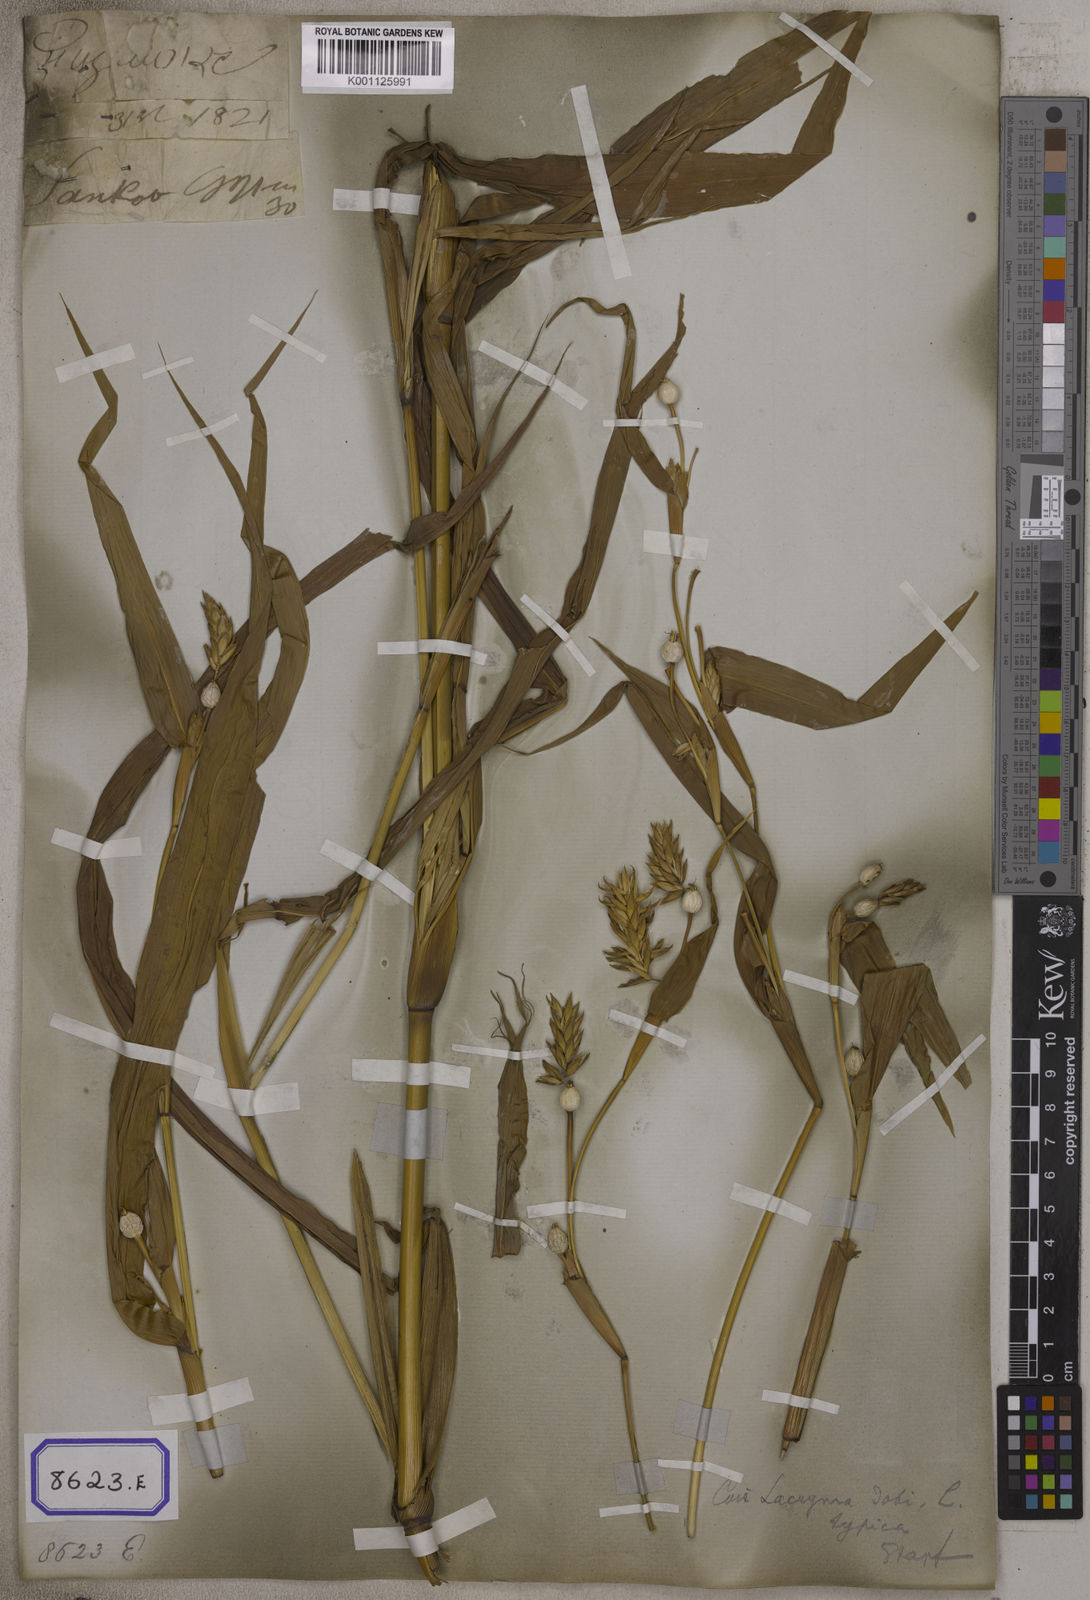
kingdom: Plantae
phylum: Tracheophyta
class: Liliopsida
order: Poales
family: Poaceae
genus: Coix
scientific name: Coix lacryma-jobi
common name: Job's tears
